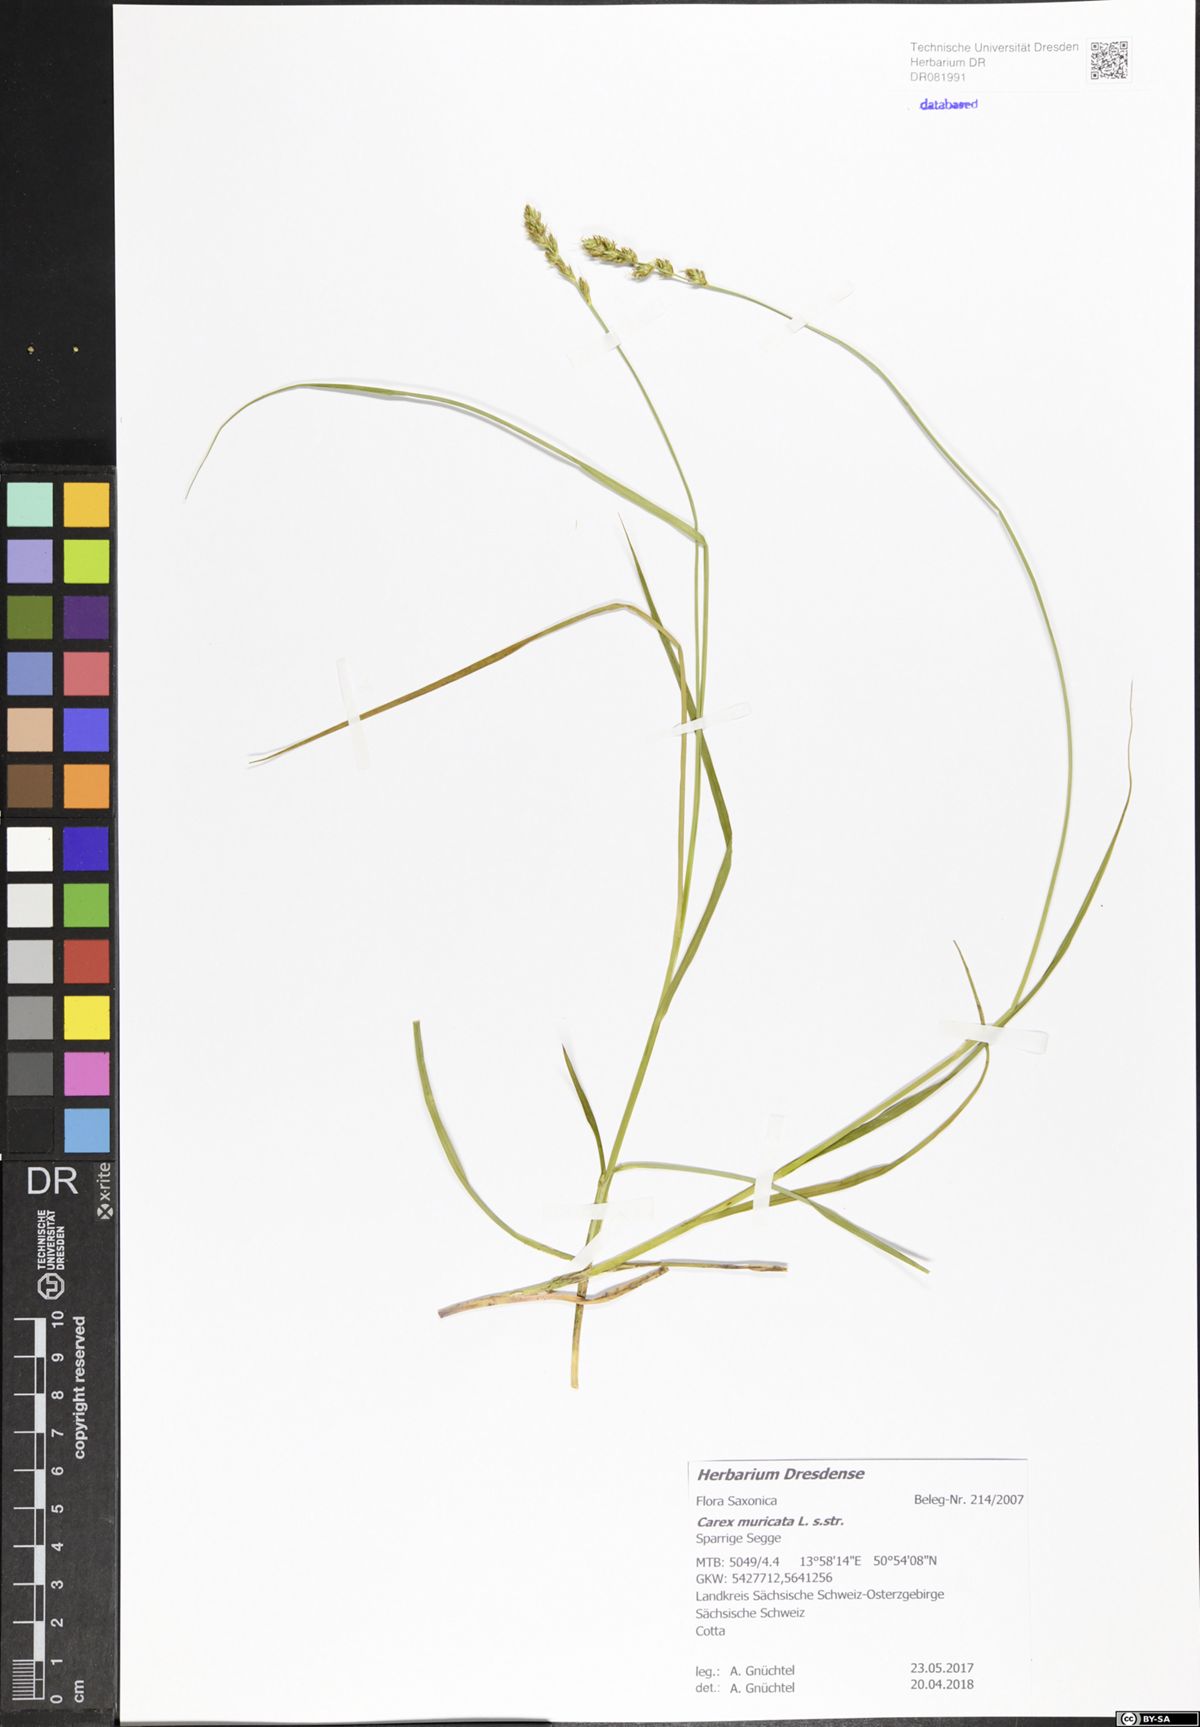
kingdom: Plantae
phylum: Tracheophyta
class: Liliopsida
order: Poales
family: Cyperaceae
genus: Carex
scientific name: Carex muricata
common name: Rough sedge
